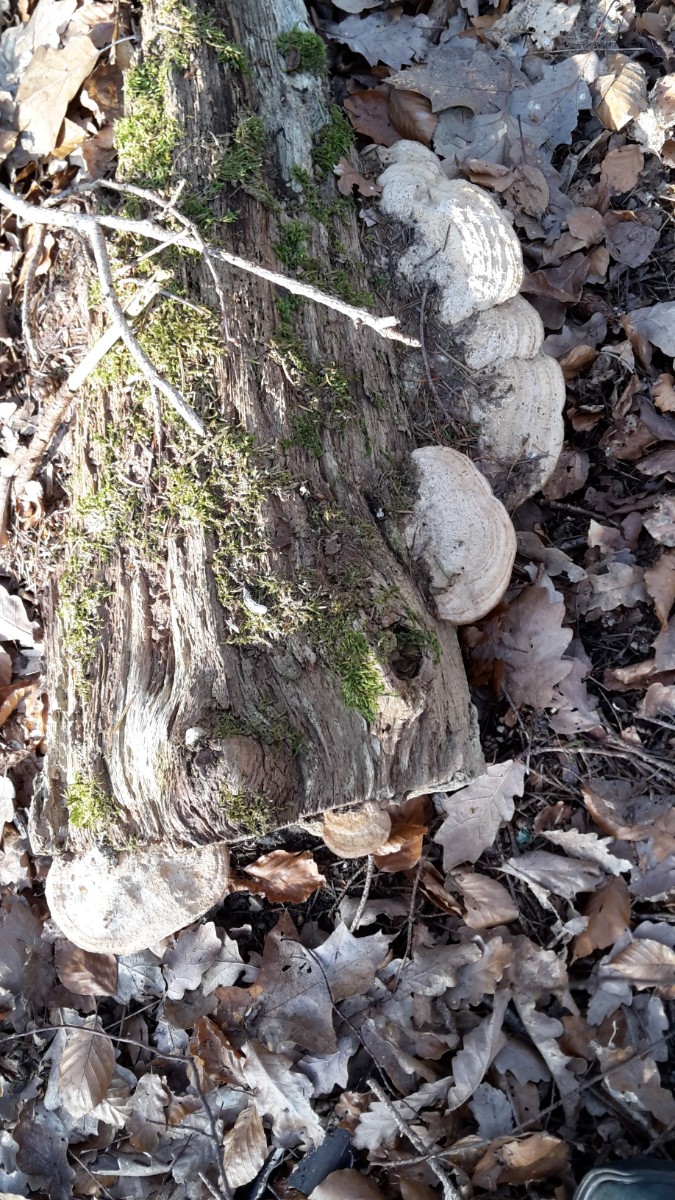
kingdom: Fungi
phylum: Basidiomycota
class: Agaricomycetes
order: Polyporales
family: Fomitopsidaceae
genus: Daedalea
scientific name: Daedalea quercina
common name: ege-labyrintsvamp
